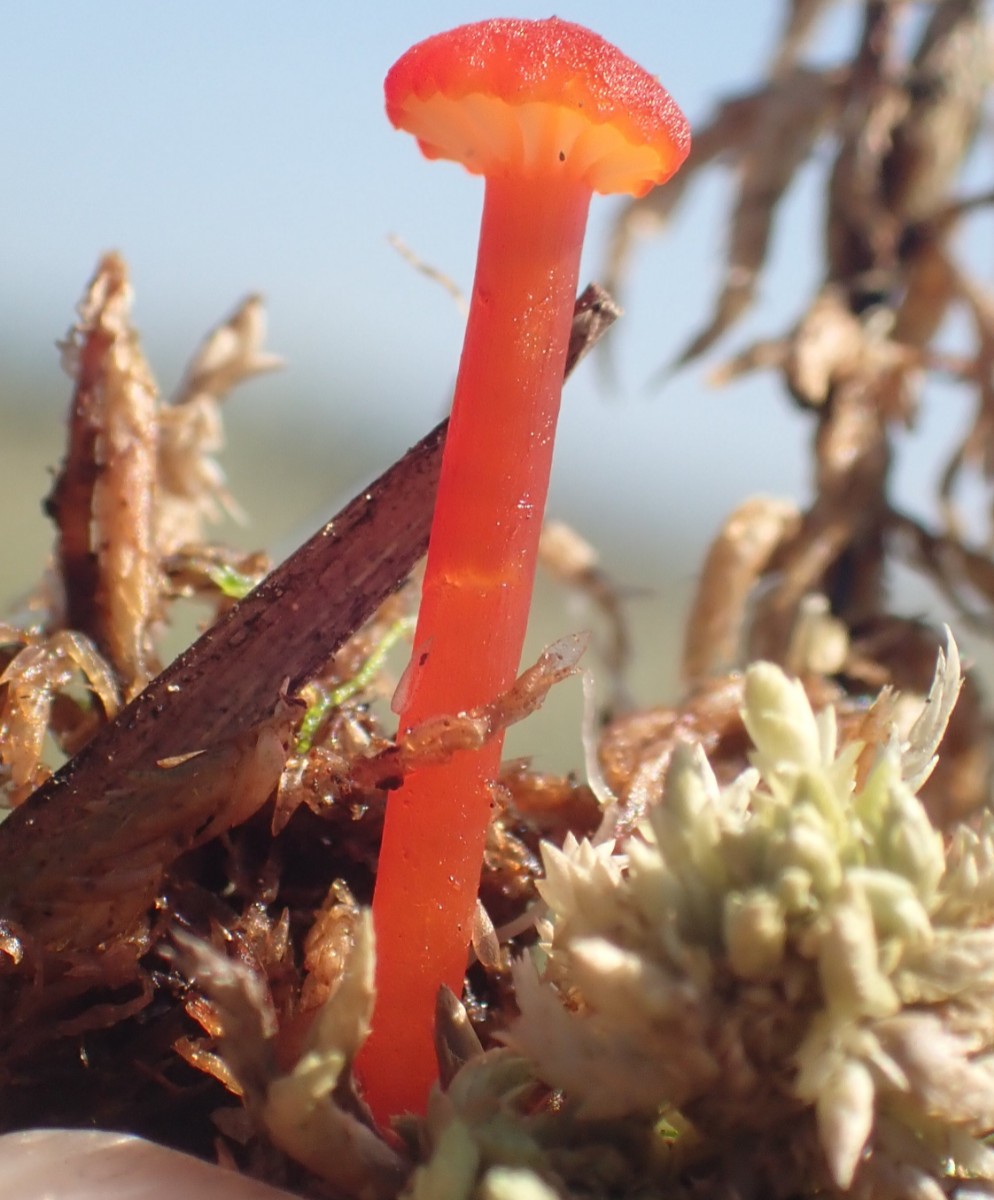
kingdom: Fungi
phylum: Basidiomycota
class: Agaricomycetes
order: Agaricales
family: Hygrophoraceae
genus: Hygrocybe
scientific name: Hygrocybe coccineocrenata
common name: tørvemos-vokshat
